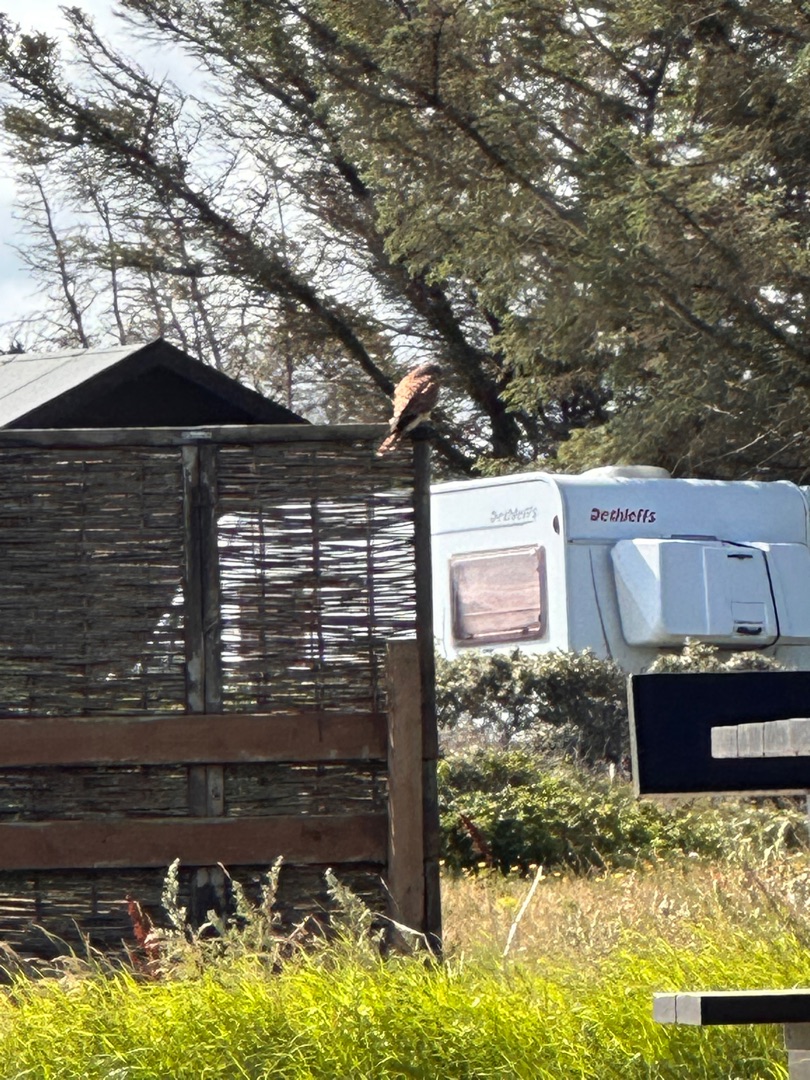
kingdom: Animalia
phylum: Chordata
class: Aves
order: Falconiformes
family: Falconidae
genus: Falco
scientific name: Falco tinnunculus
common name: Tårnfalk
